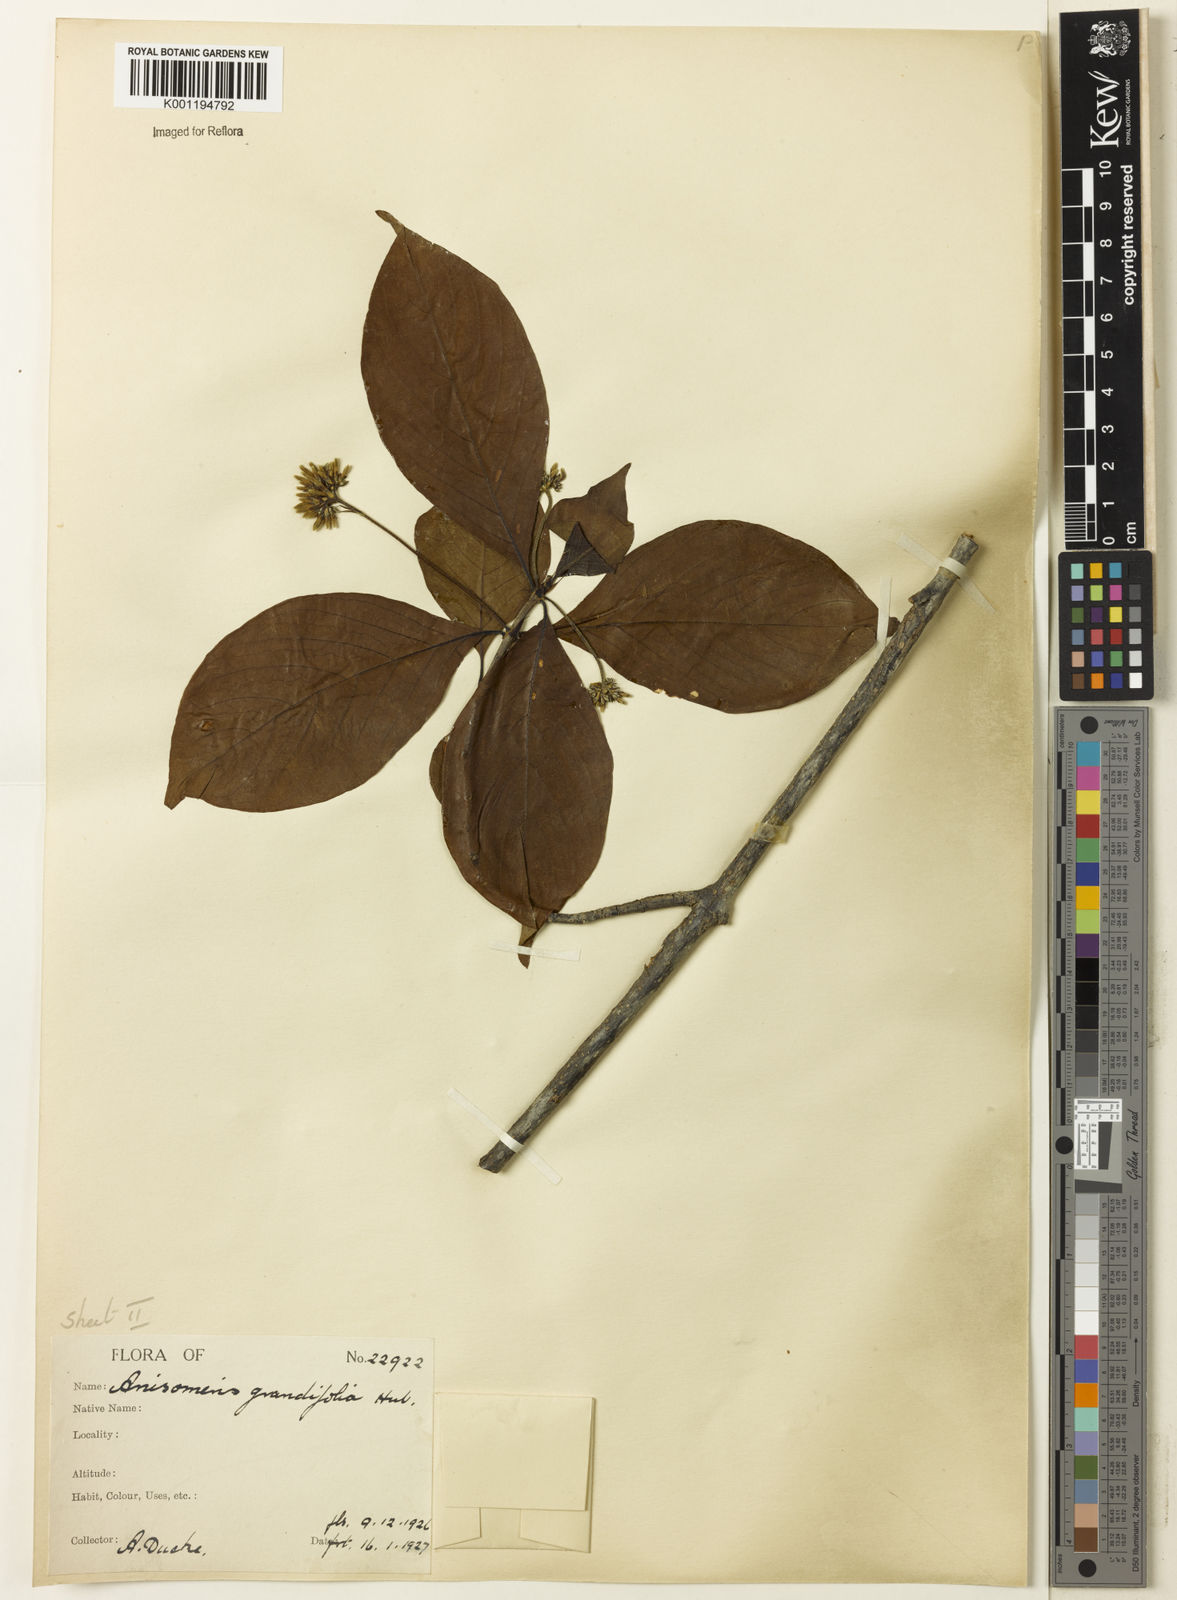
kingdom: Plantae
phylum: Tracheophyta
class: Magnoliopsida
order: Gentianales
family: Rubiaceae
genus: Chomelia
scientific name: Chomelia grandifolia
